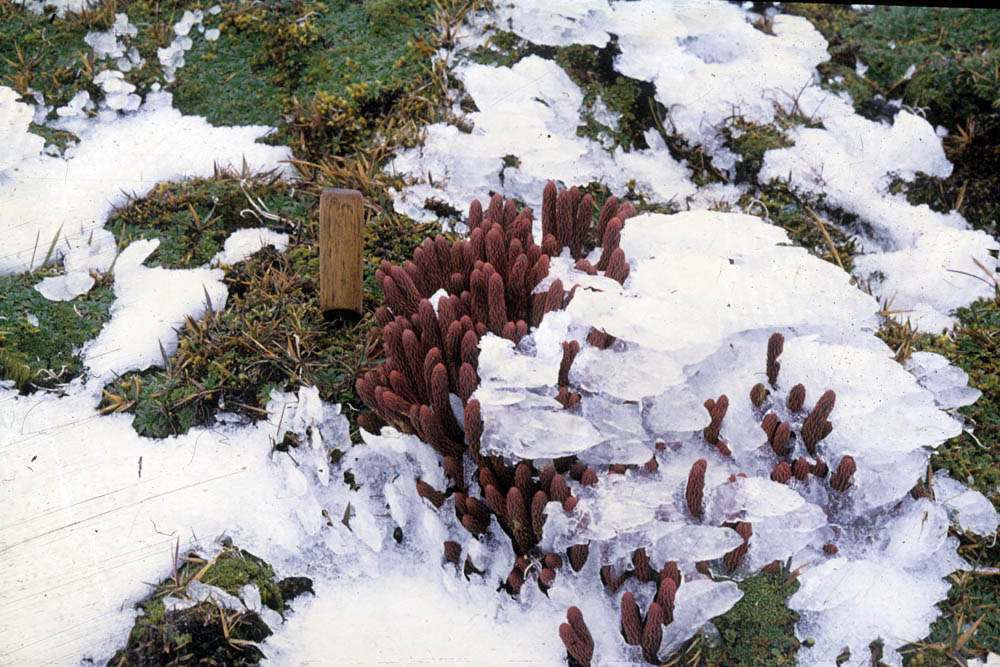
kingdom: Plantae
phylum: Tracheophyta
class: Lycopodiopsida
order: Lycopodiales
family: Lycopodiaceae
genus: Phlegmariurus
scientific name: Phlegmariurus crassus
